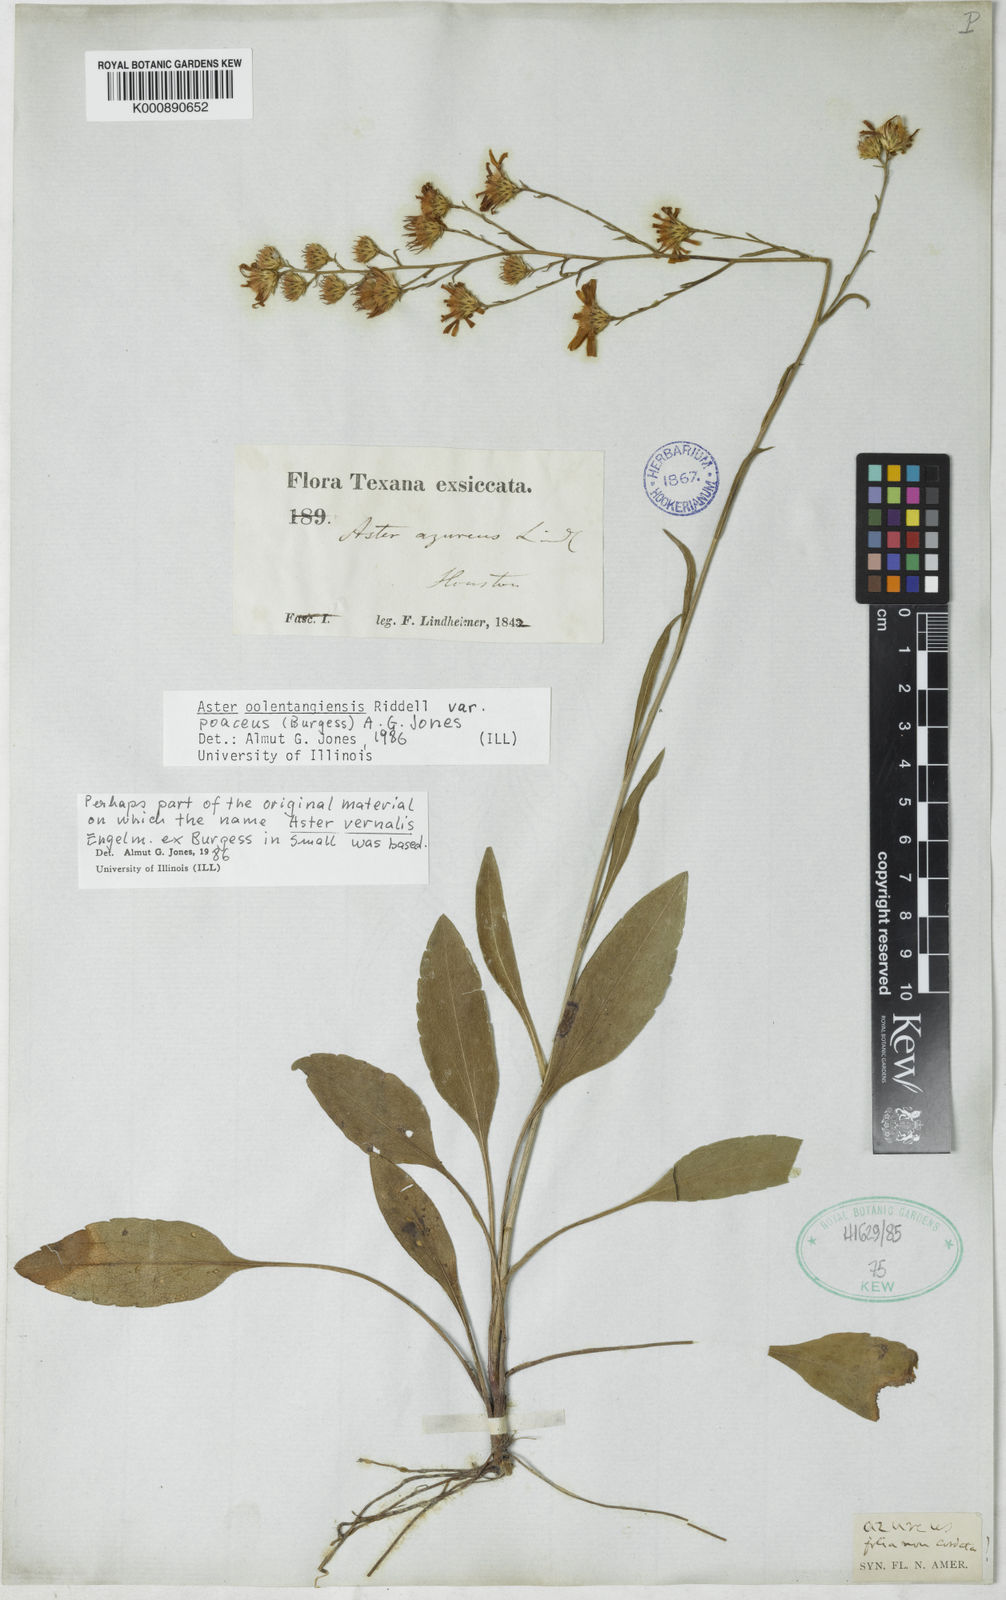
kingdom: Plantae
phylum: Tracheophyta
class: Magnoliopsida
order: Asterales
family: Asteraceae
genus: Symphyotrichum
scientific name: Symphyotrichum oolentangiense
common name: Azure aster
